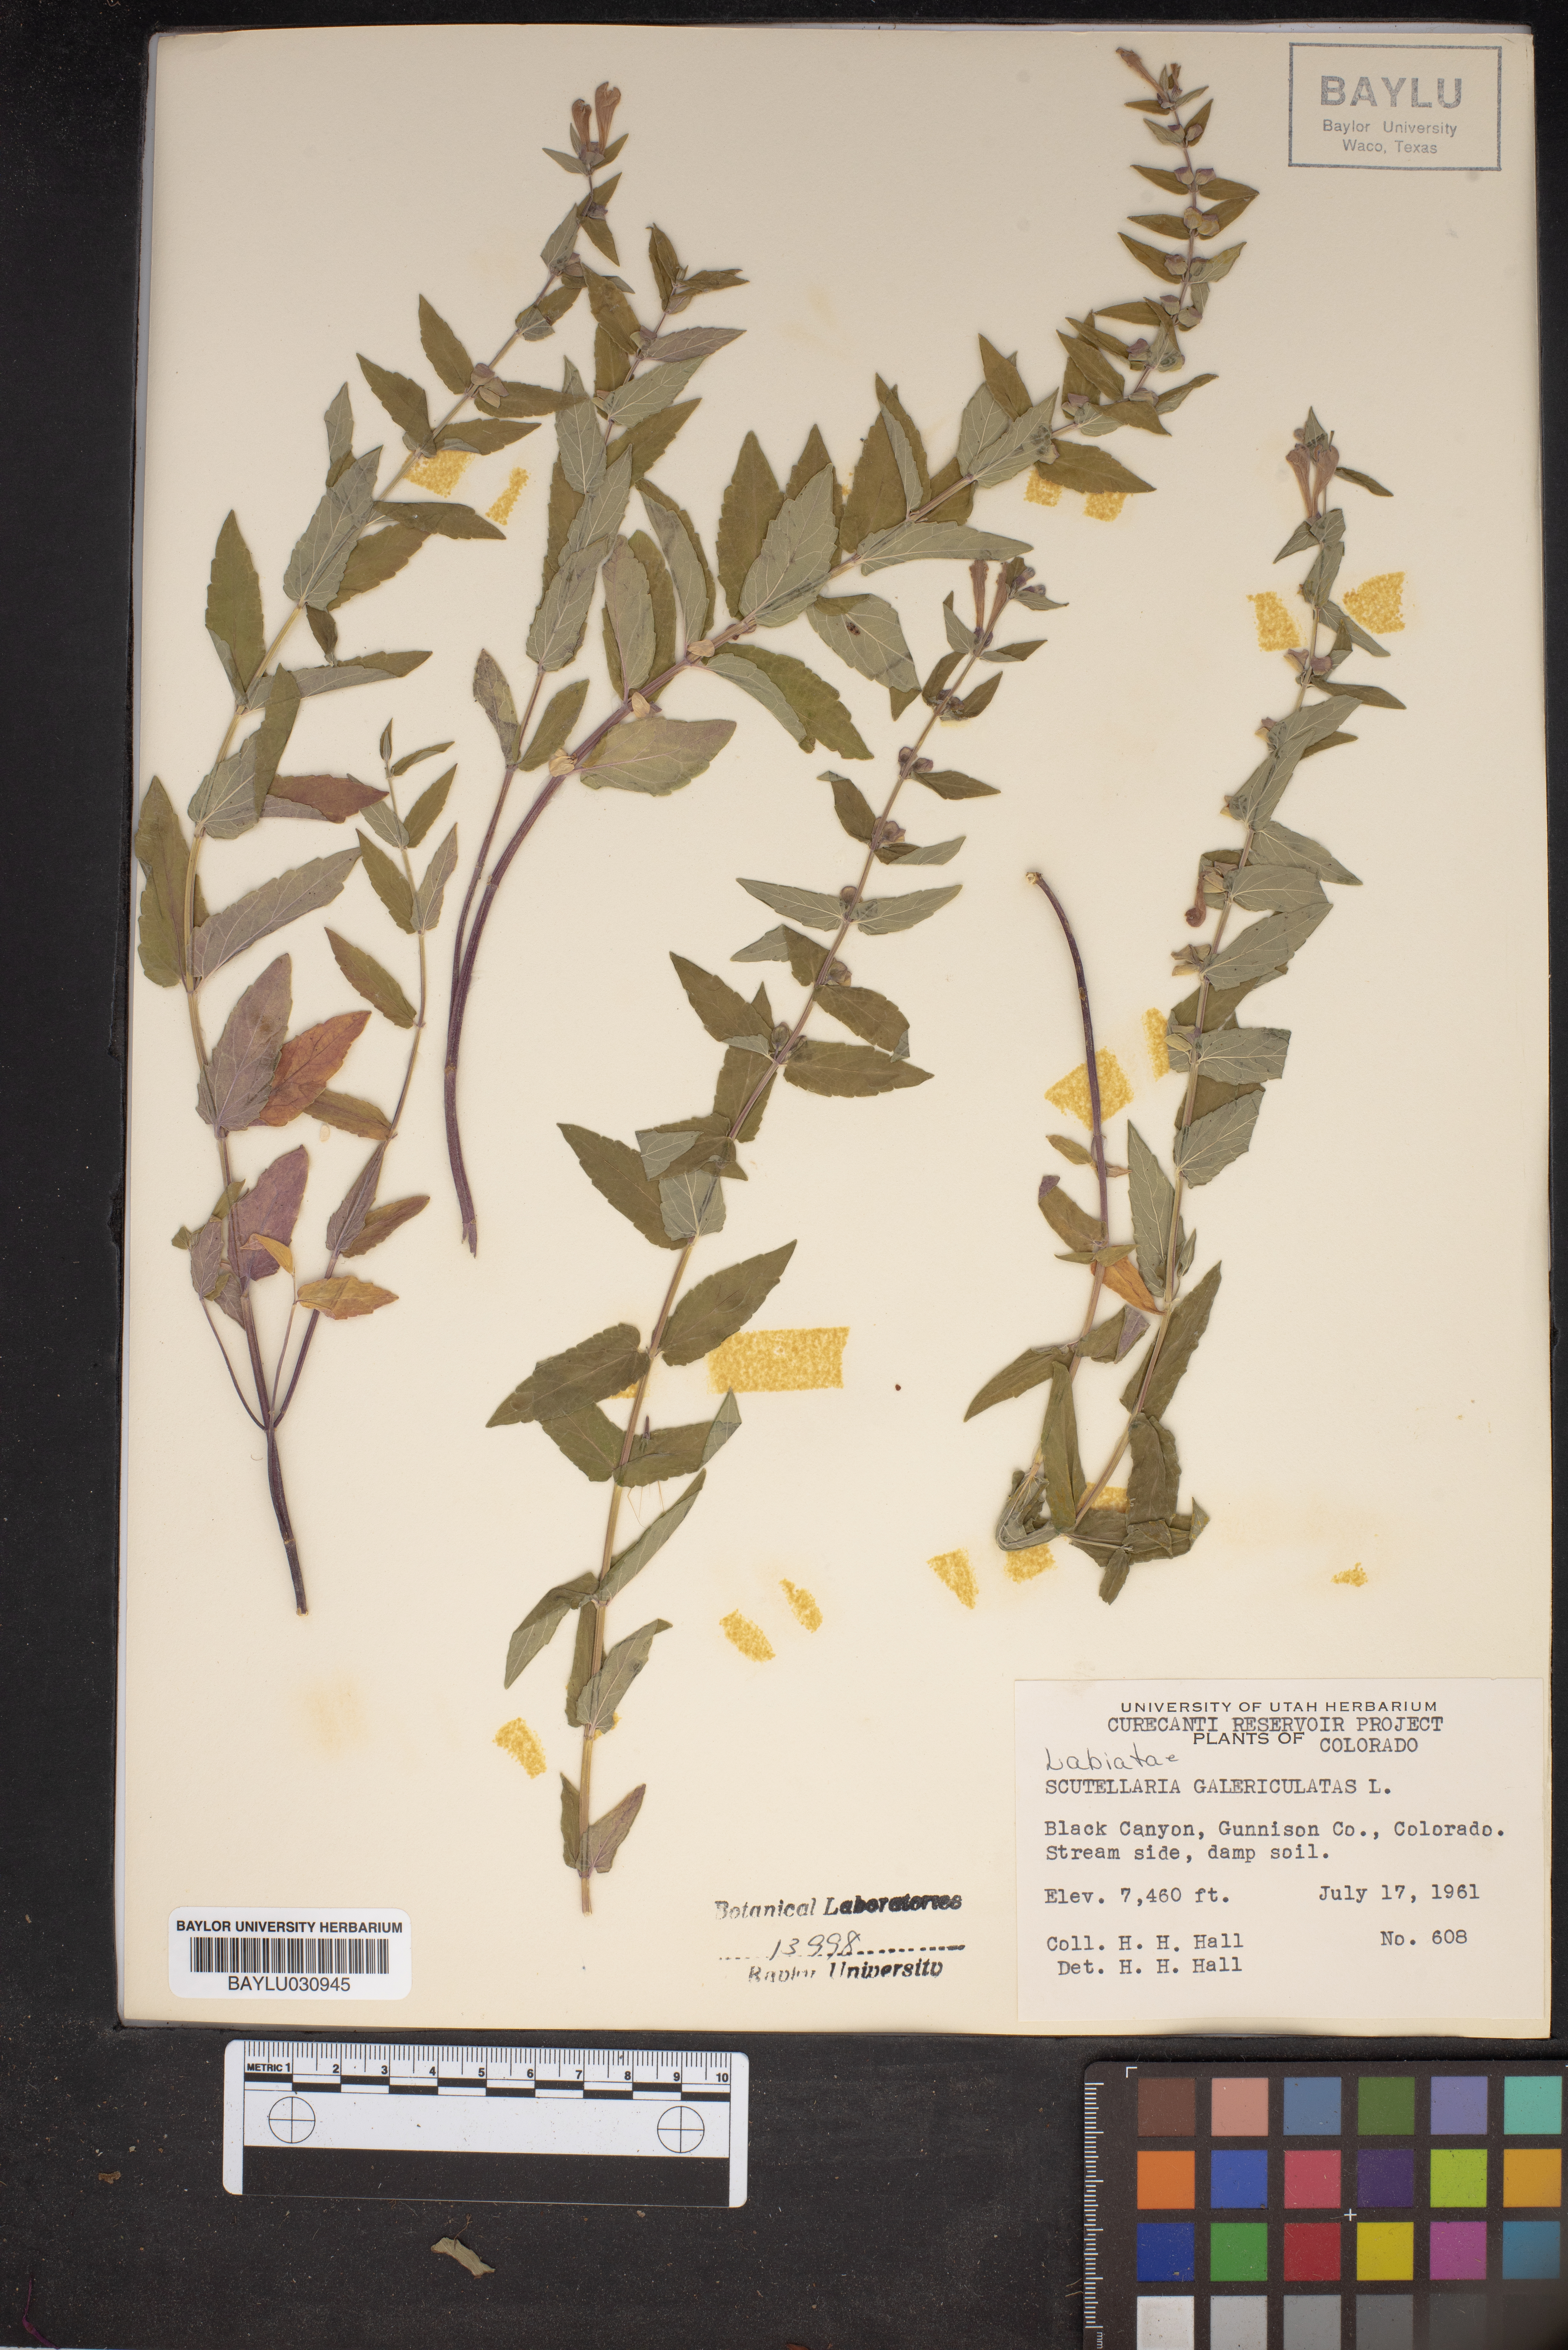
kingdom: Plantae
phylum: Tracheophyta
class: Magnoliopsida
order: Lamiales
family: Lamiaceae
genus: Scutellaria
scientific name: Scutellaria galericulata
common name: Skullcap
